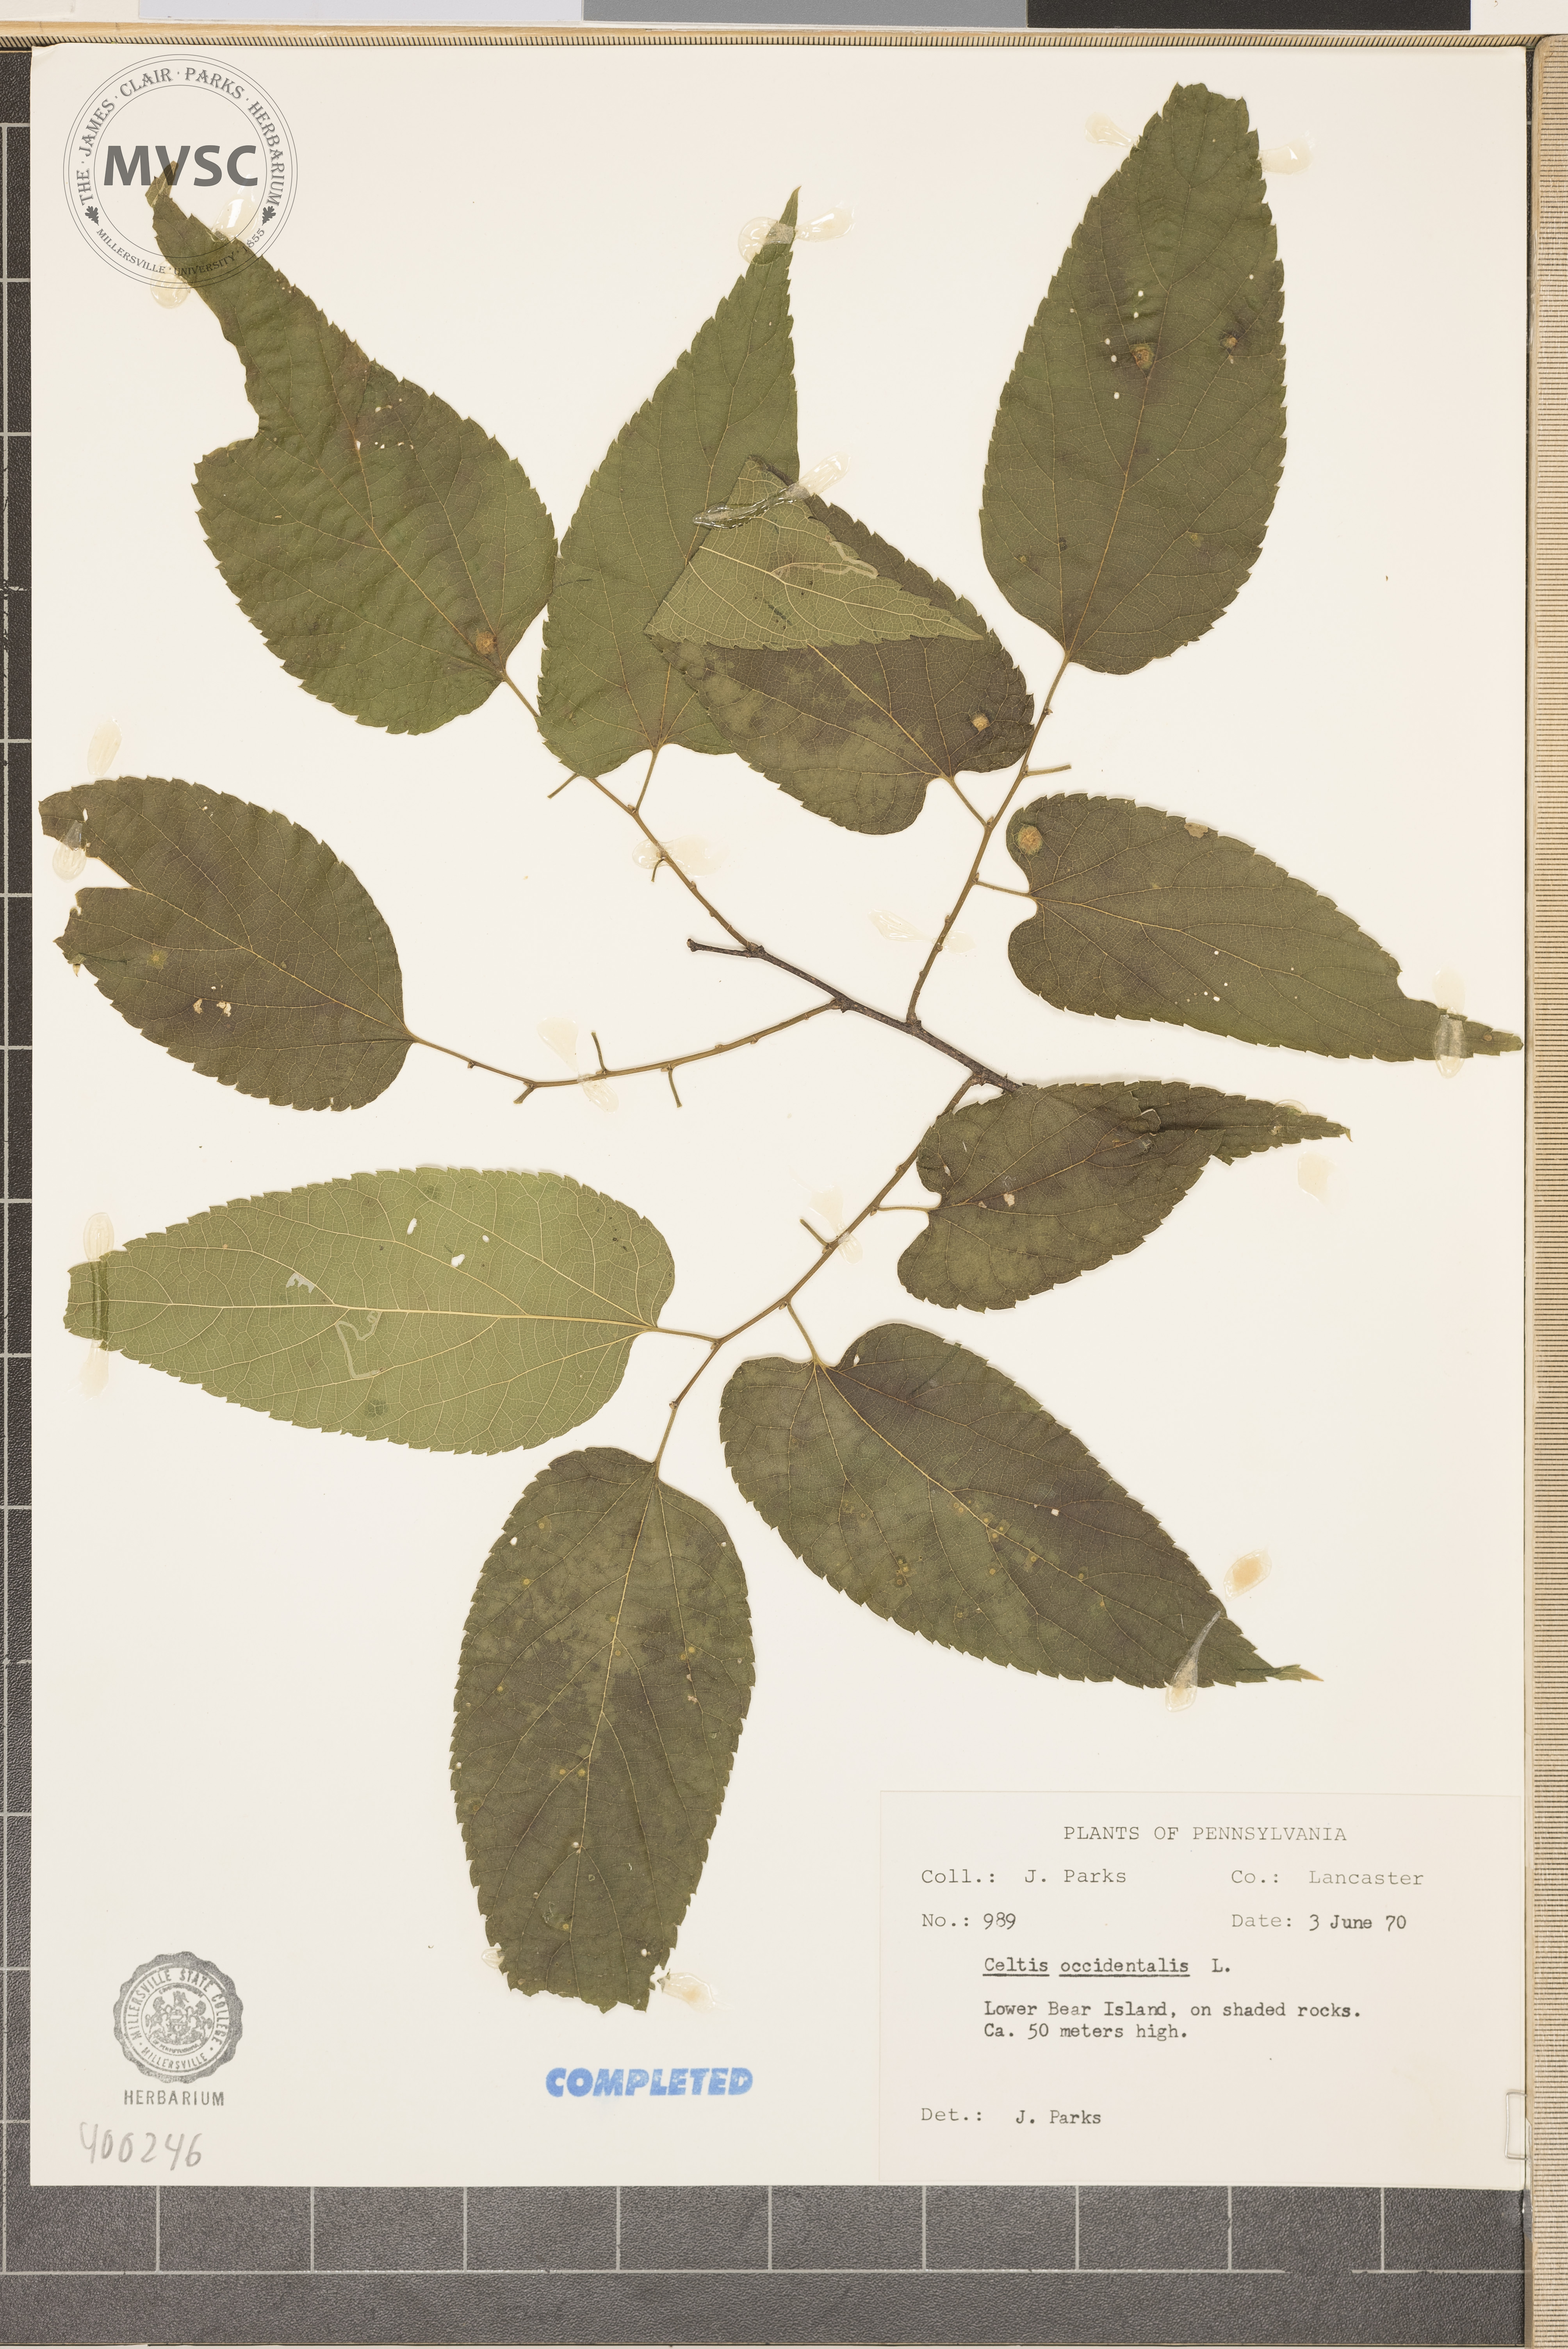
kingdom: Plantae
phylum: Tracheophyta
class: Magnoliopsida
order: Rosales
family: Cannabaceae
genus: Celtis
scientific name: Celtis occidentalis
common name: hackberry
